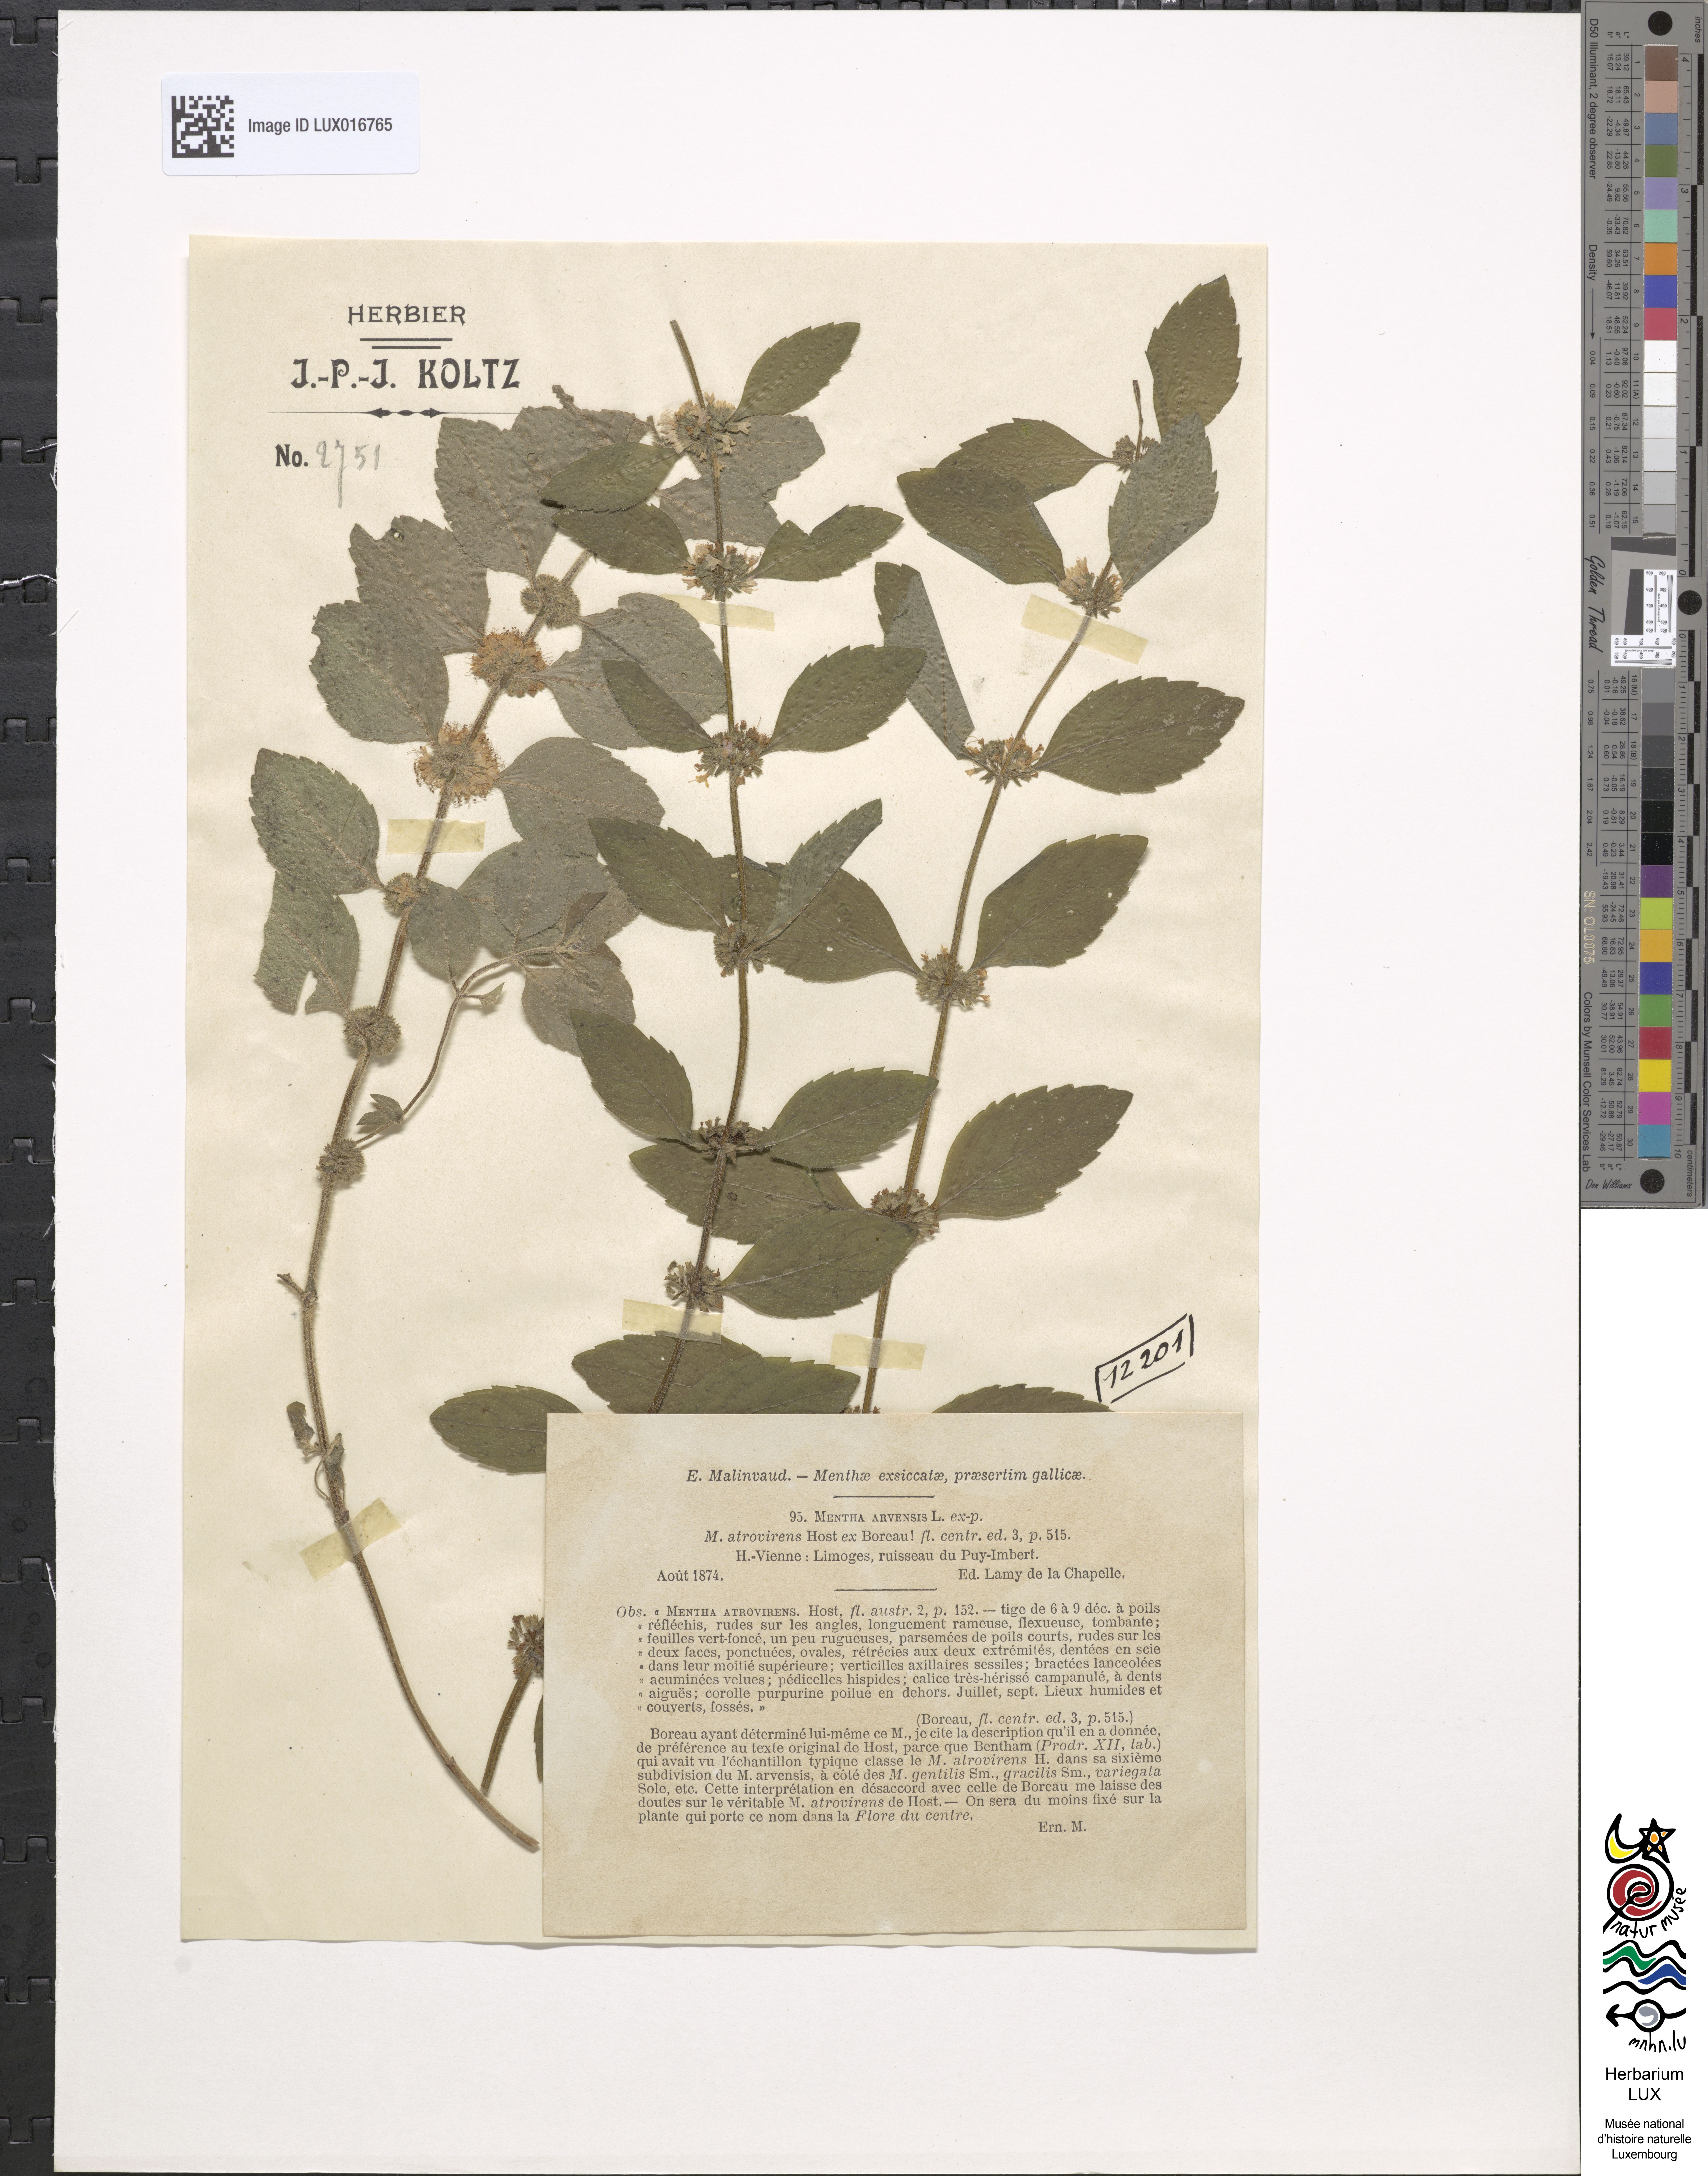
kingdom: Plantae
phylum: Tracheophyta
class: Magnoliopsida
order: Lamiales
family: Lamiaceae
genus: Mentha
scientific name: Mentha arvensis
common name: Corn mint
